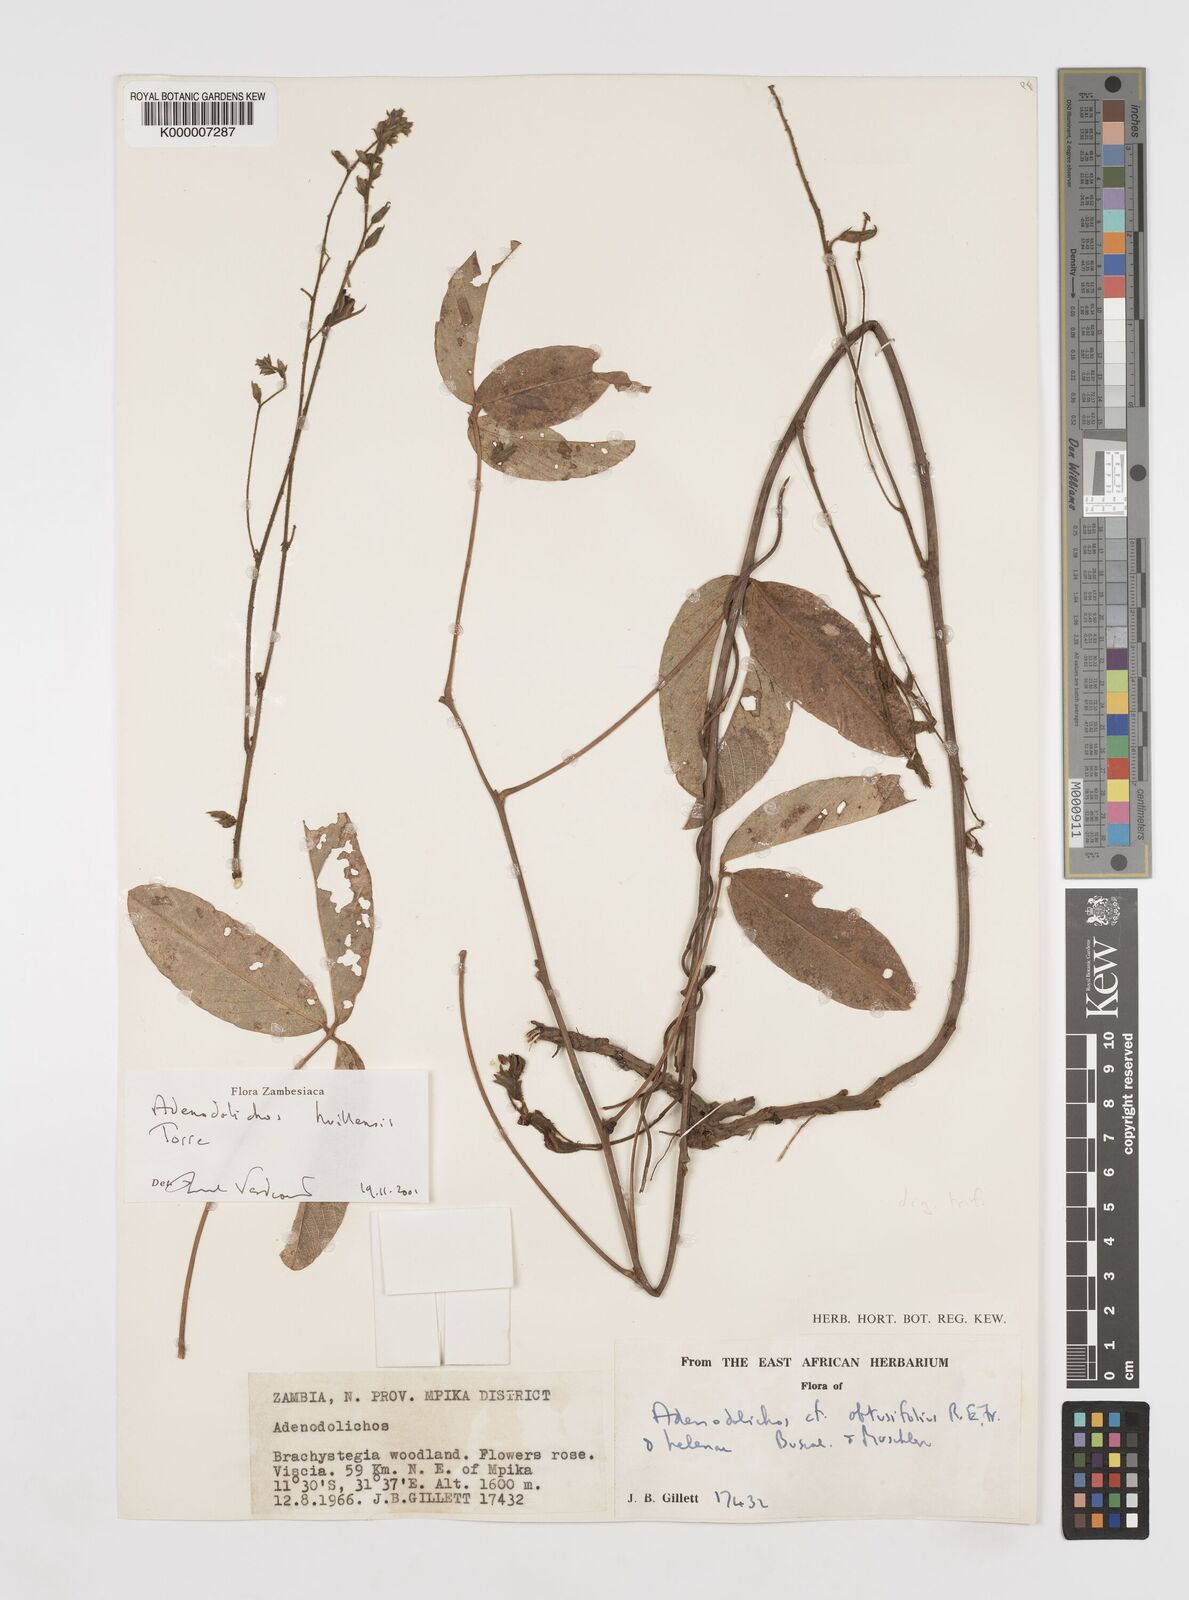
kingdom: Plantae
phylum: Tracheophyta
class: Magnoliopsida
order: Fabales
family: Fabaceae
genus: Adenodolichos
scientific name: Adenodolichos huillensis
